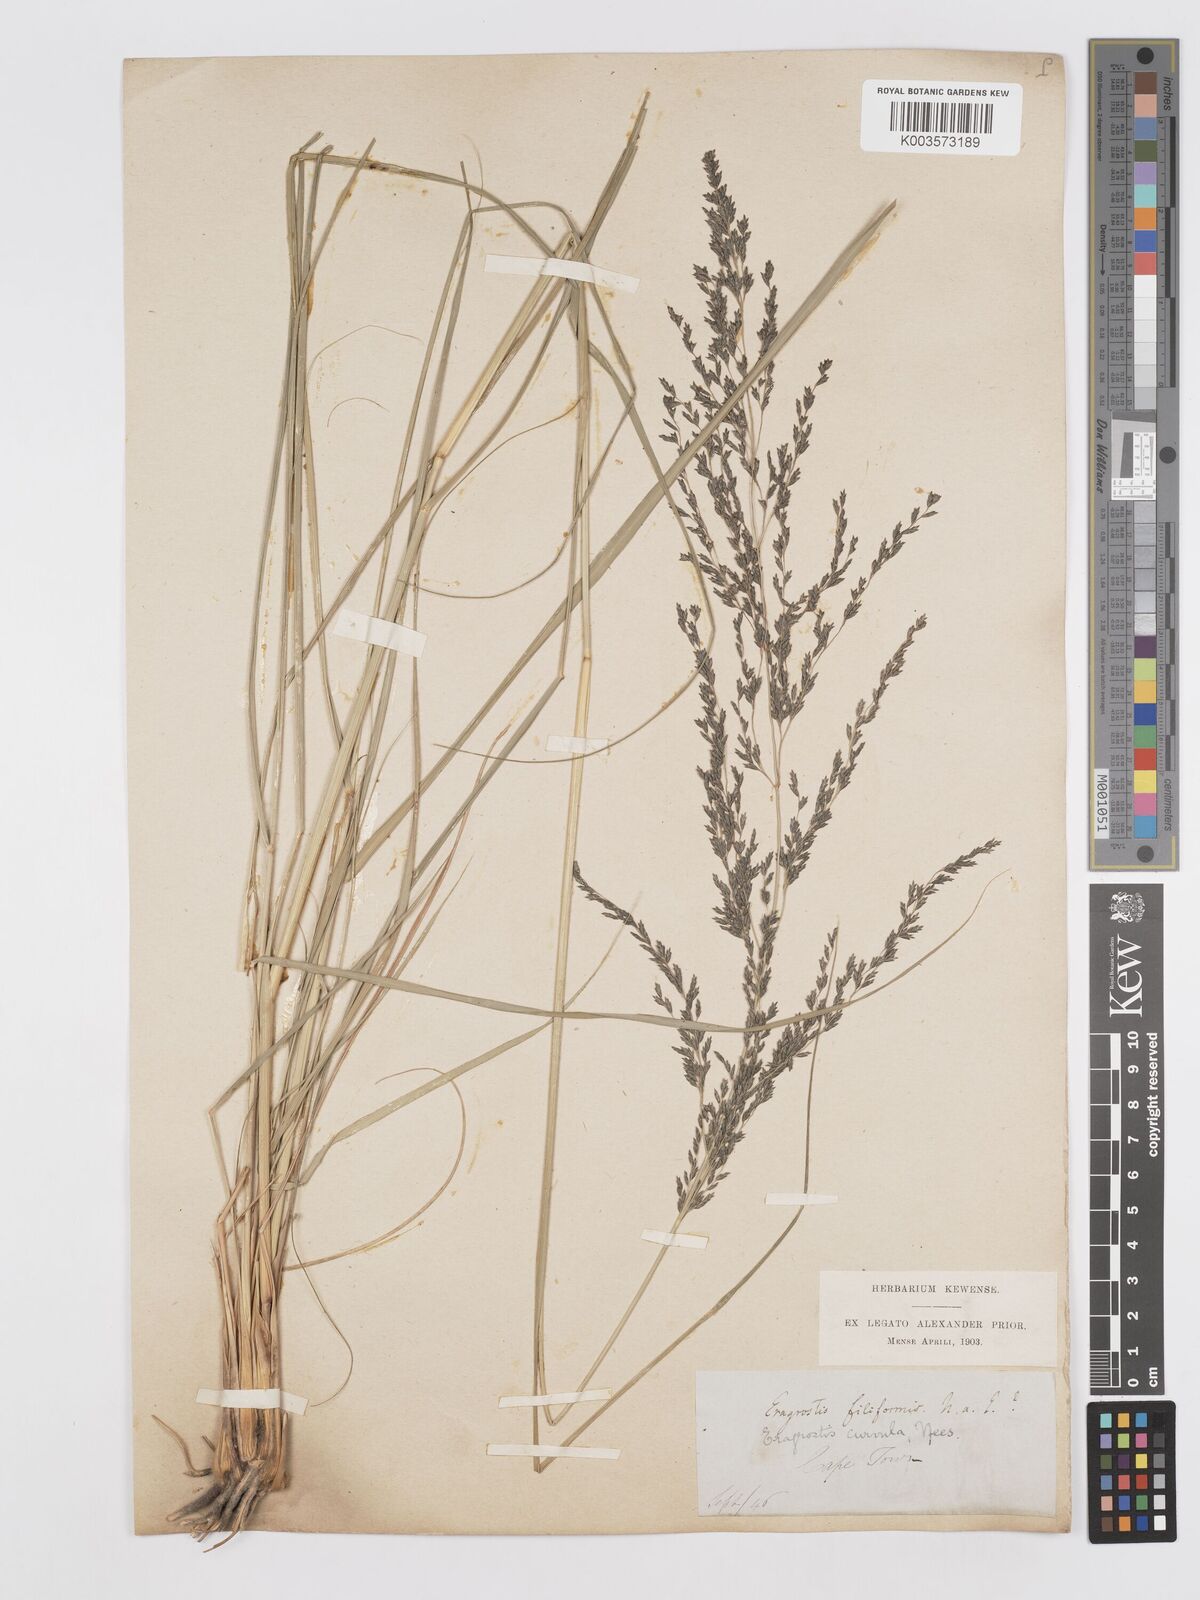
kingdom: Plantae
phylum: Tracheophyta
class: Liliopsida
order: Poales
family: Poaceae
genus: Eragrostis
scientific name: Eragrostis curvula
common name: African love-grass
